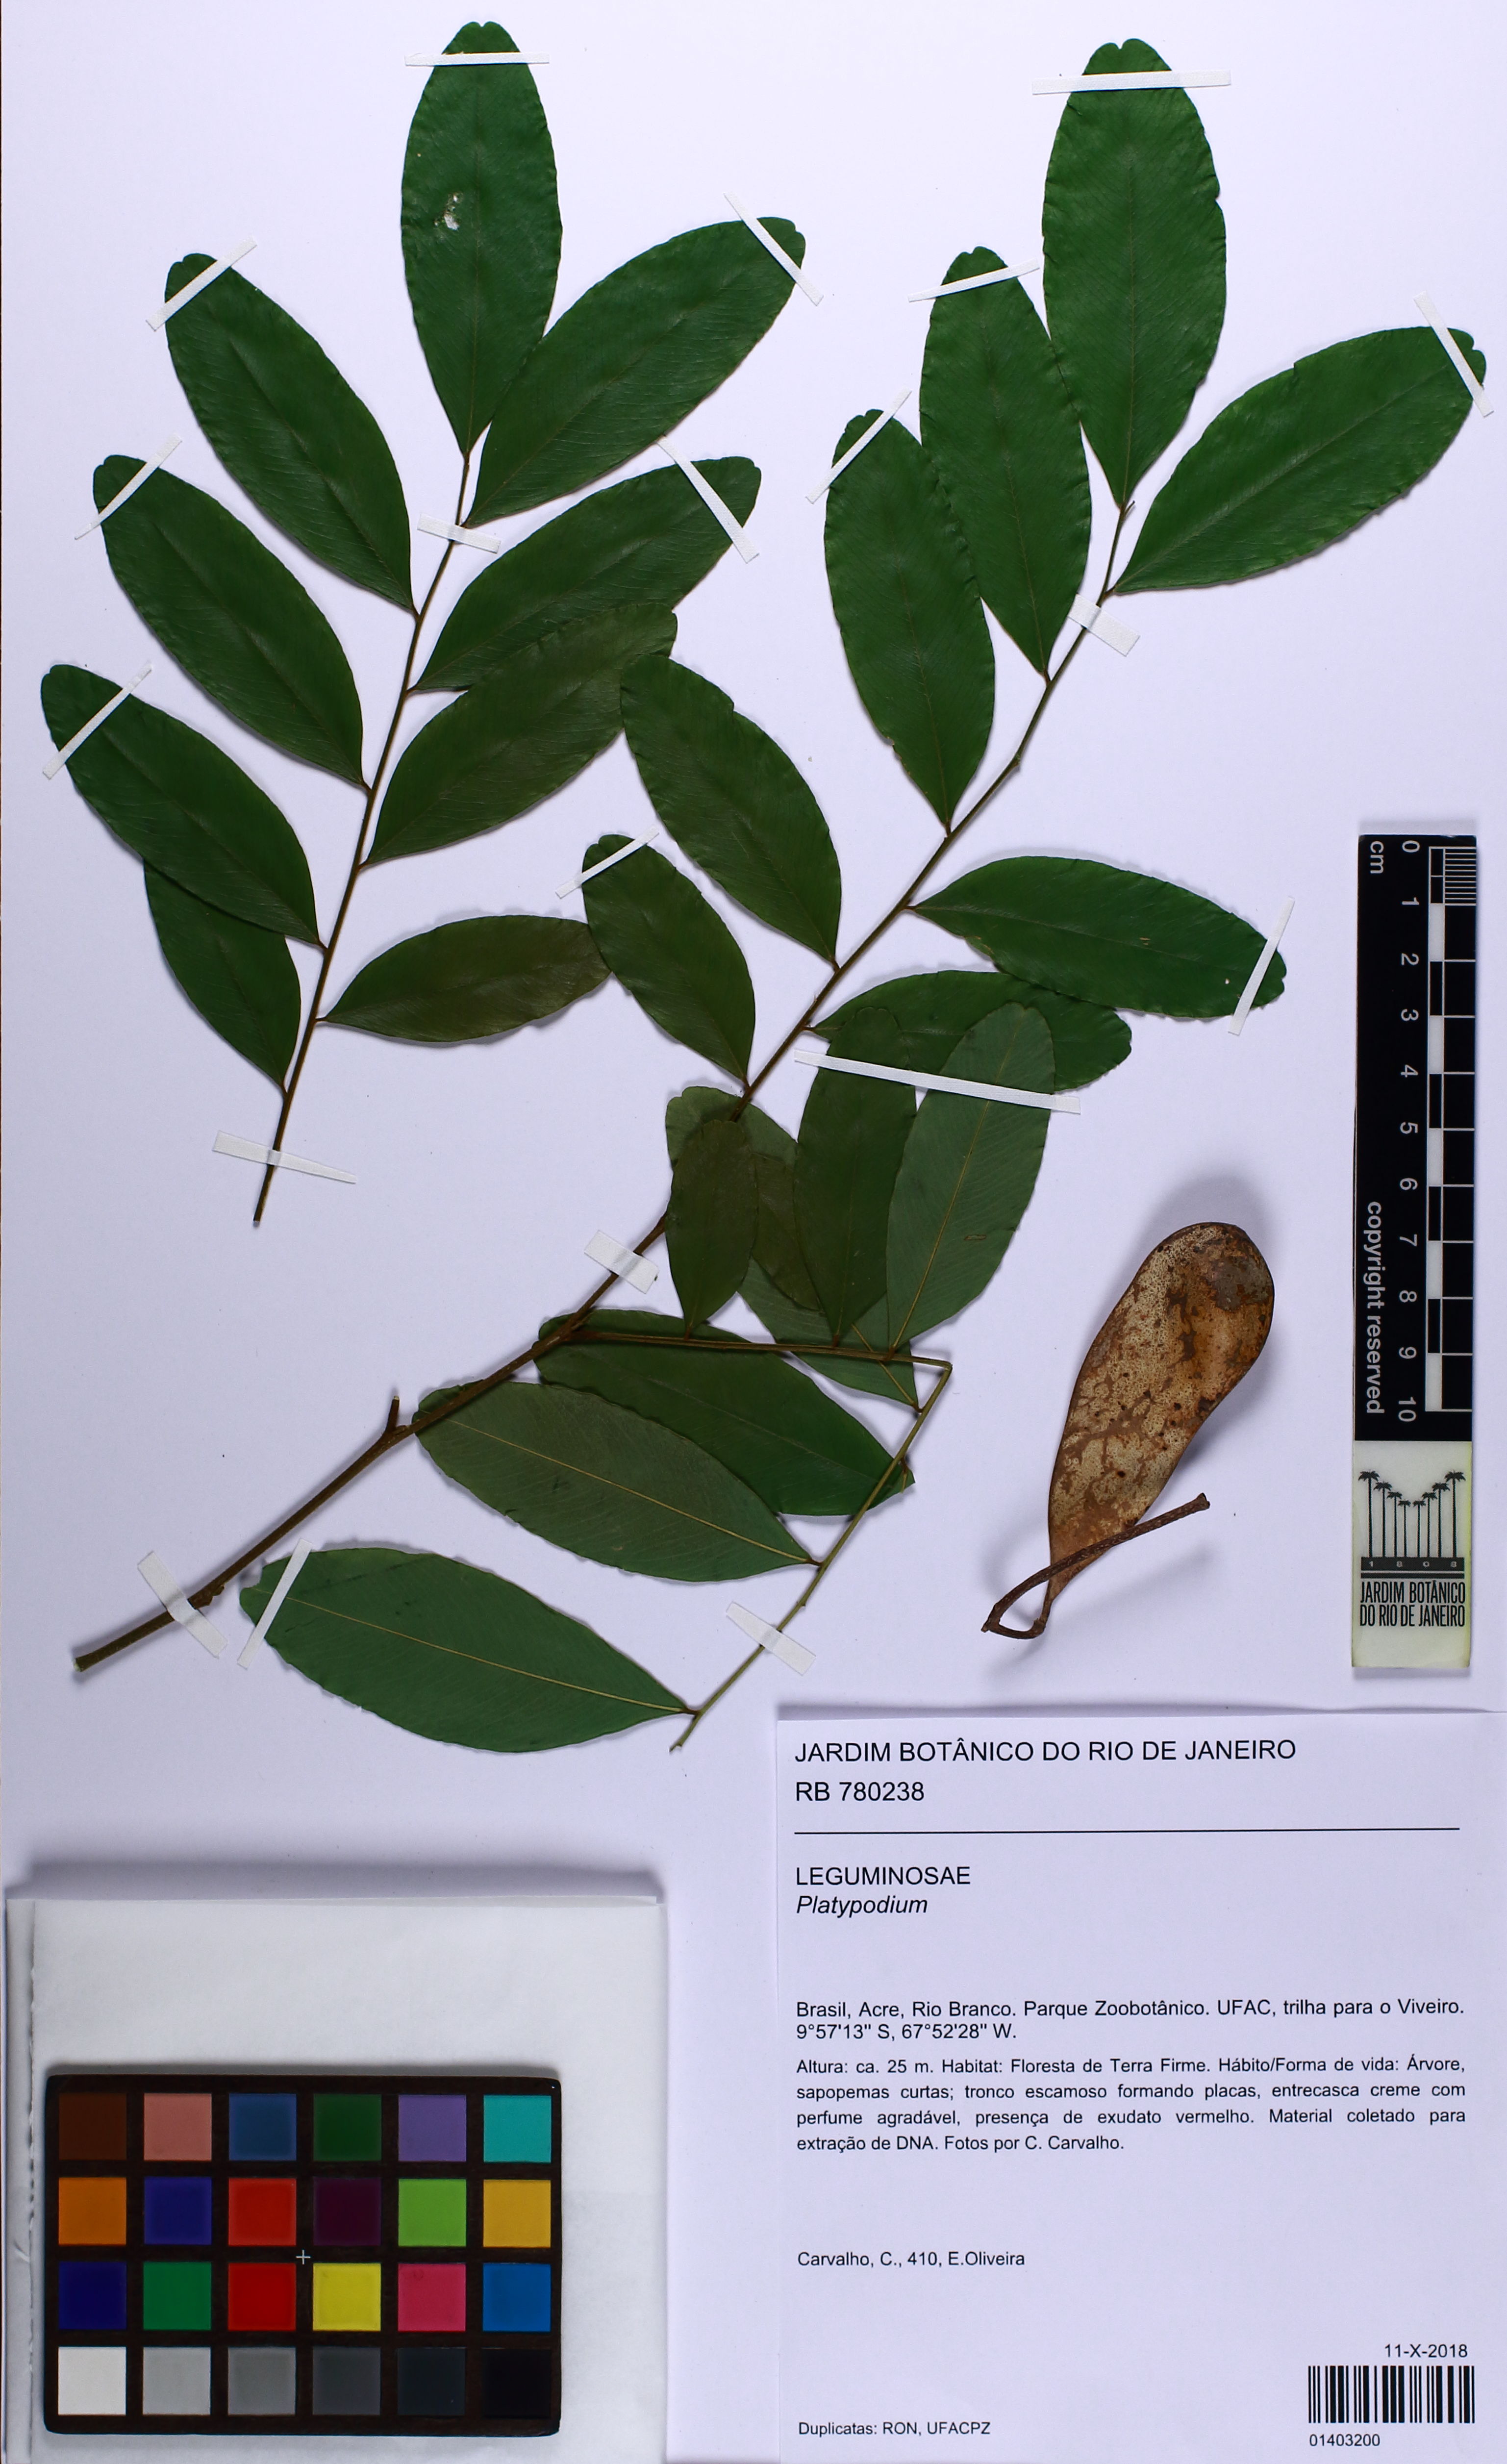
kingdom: Plantae
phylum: Tracheophyta
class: Magnoliopsida
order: Fabales
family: Fabaceae
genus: Platypodium
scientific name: Platypodium
